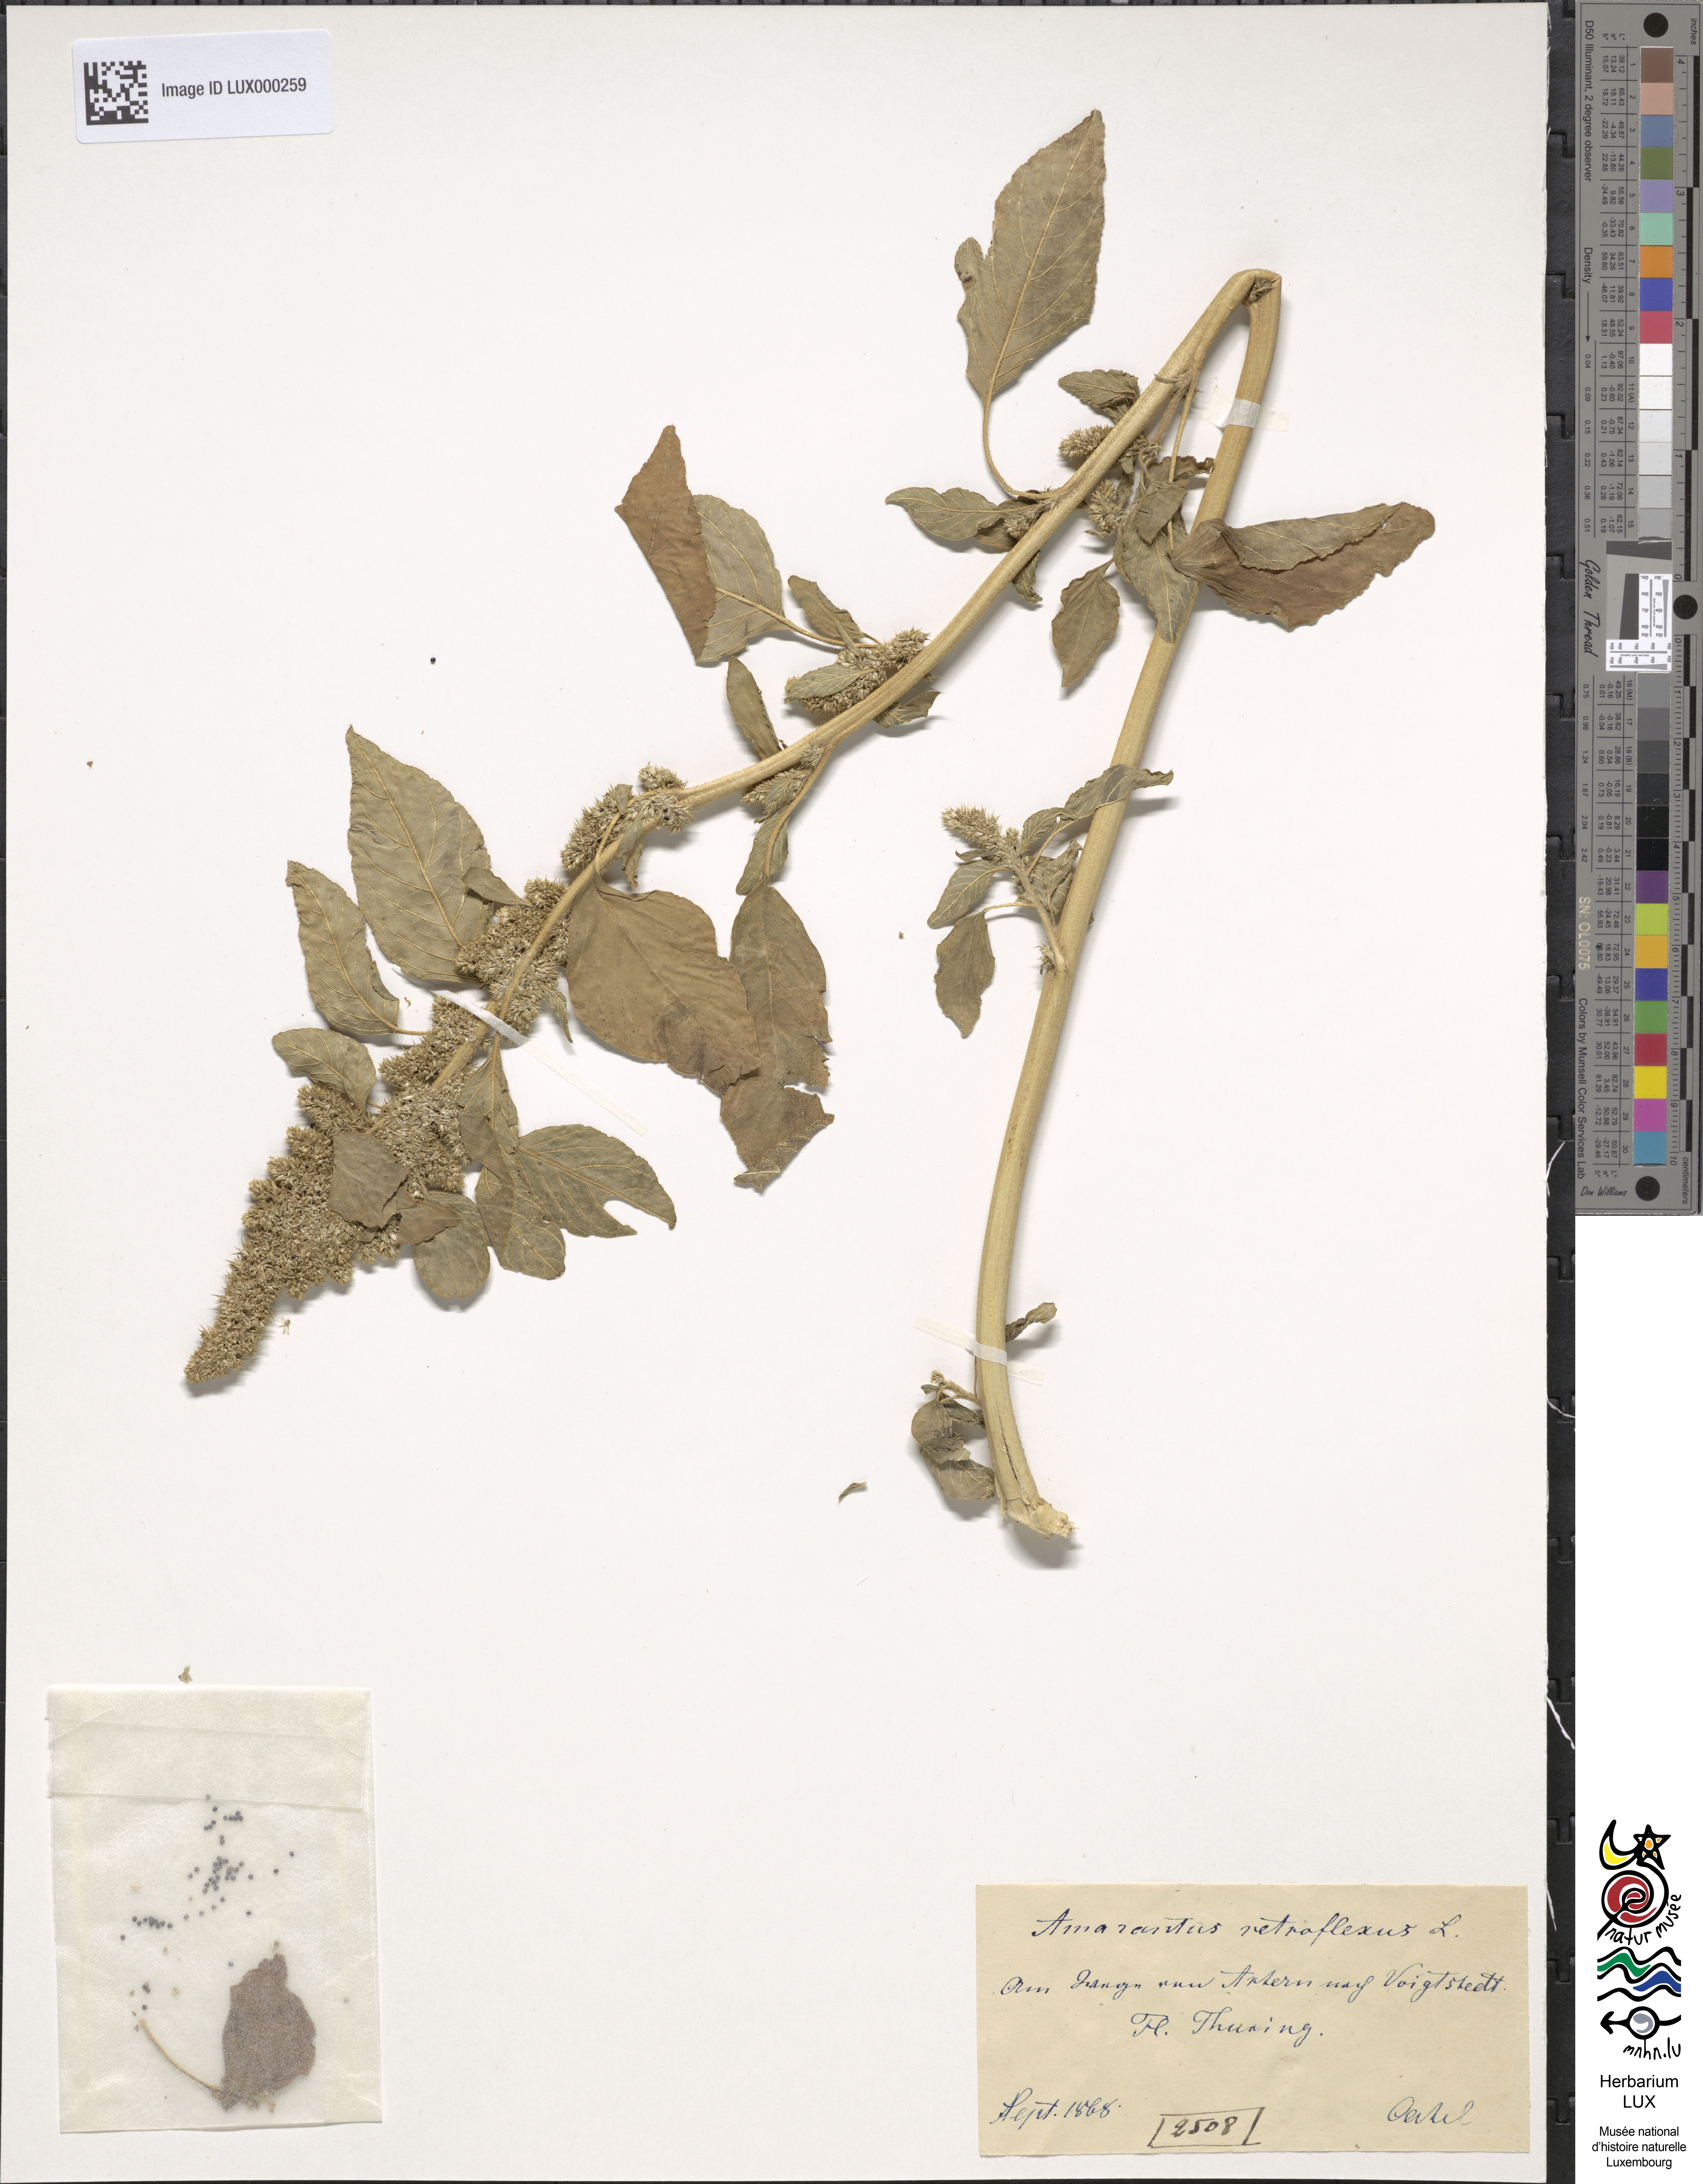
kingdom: Plantae
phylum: Tracheophyta
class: Magnoliopsida
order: Caryophyllales
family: Amaranthaceae
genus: Amaranthus
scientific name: Amaranthus retroflexus
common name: Redroot amaranth
